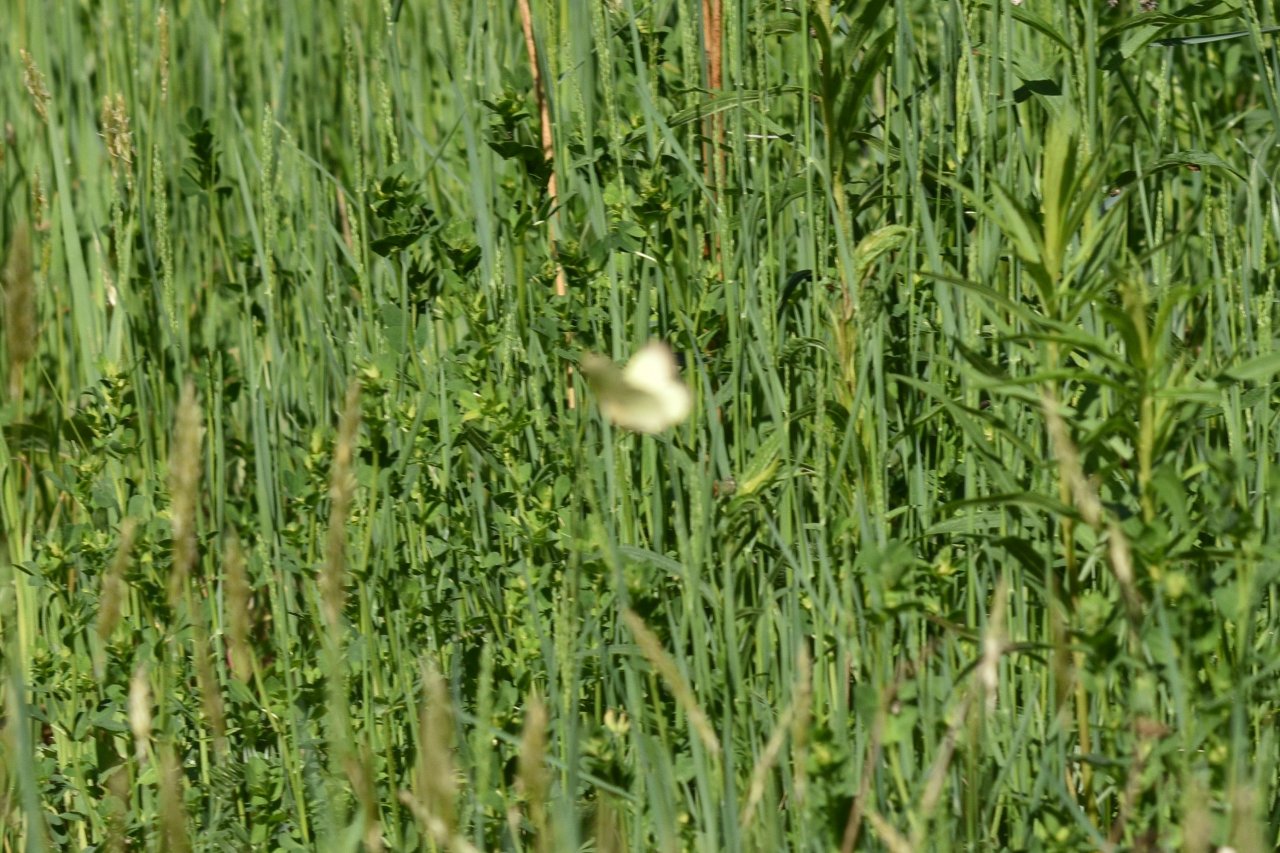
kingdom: Animalia
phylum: Arthropoda
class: Insecta
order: Lepidoptera
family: Pieridae
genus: Colias
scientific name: Colias philodice
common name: Clouded Sulphur
